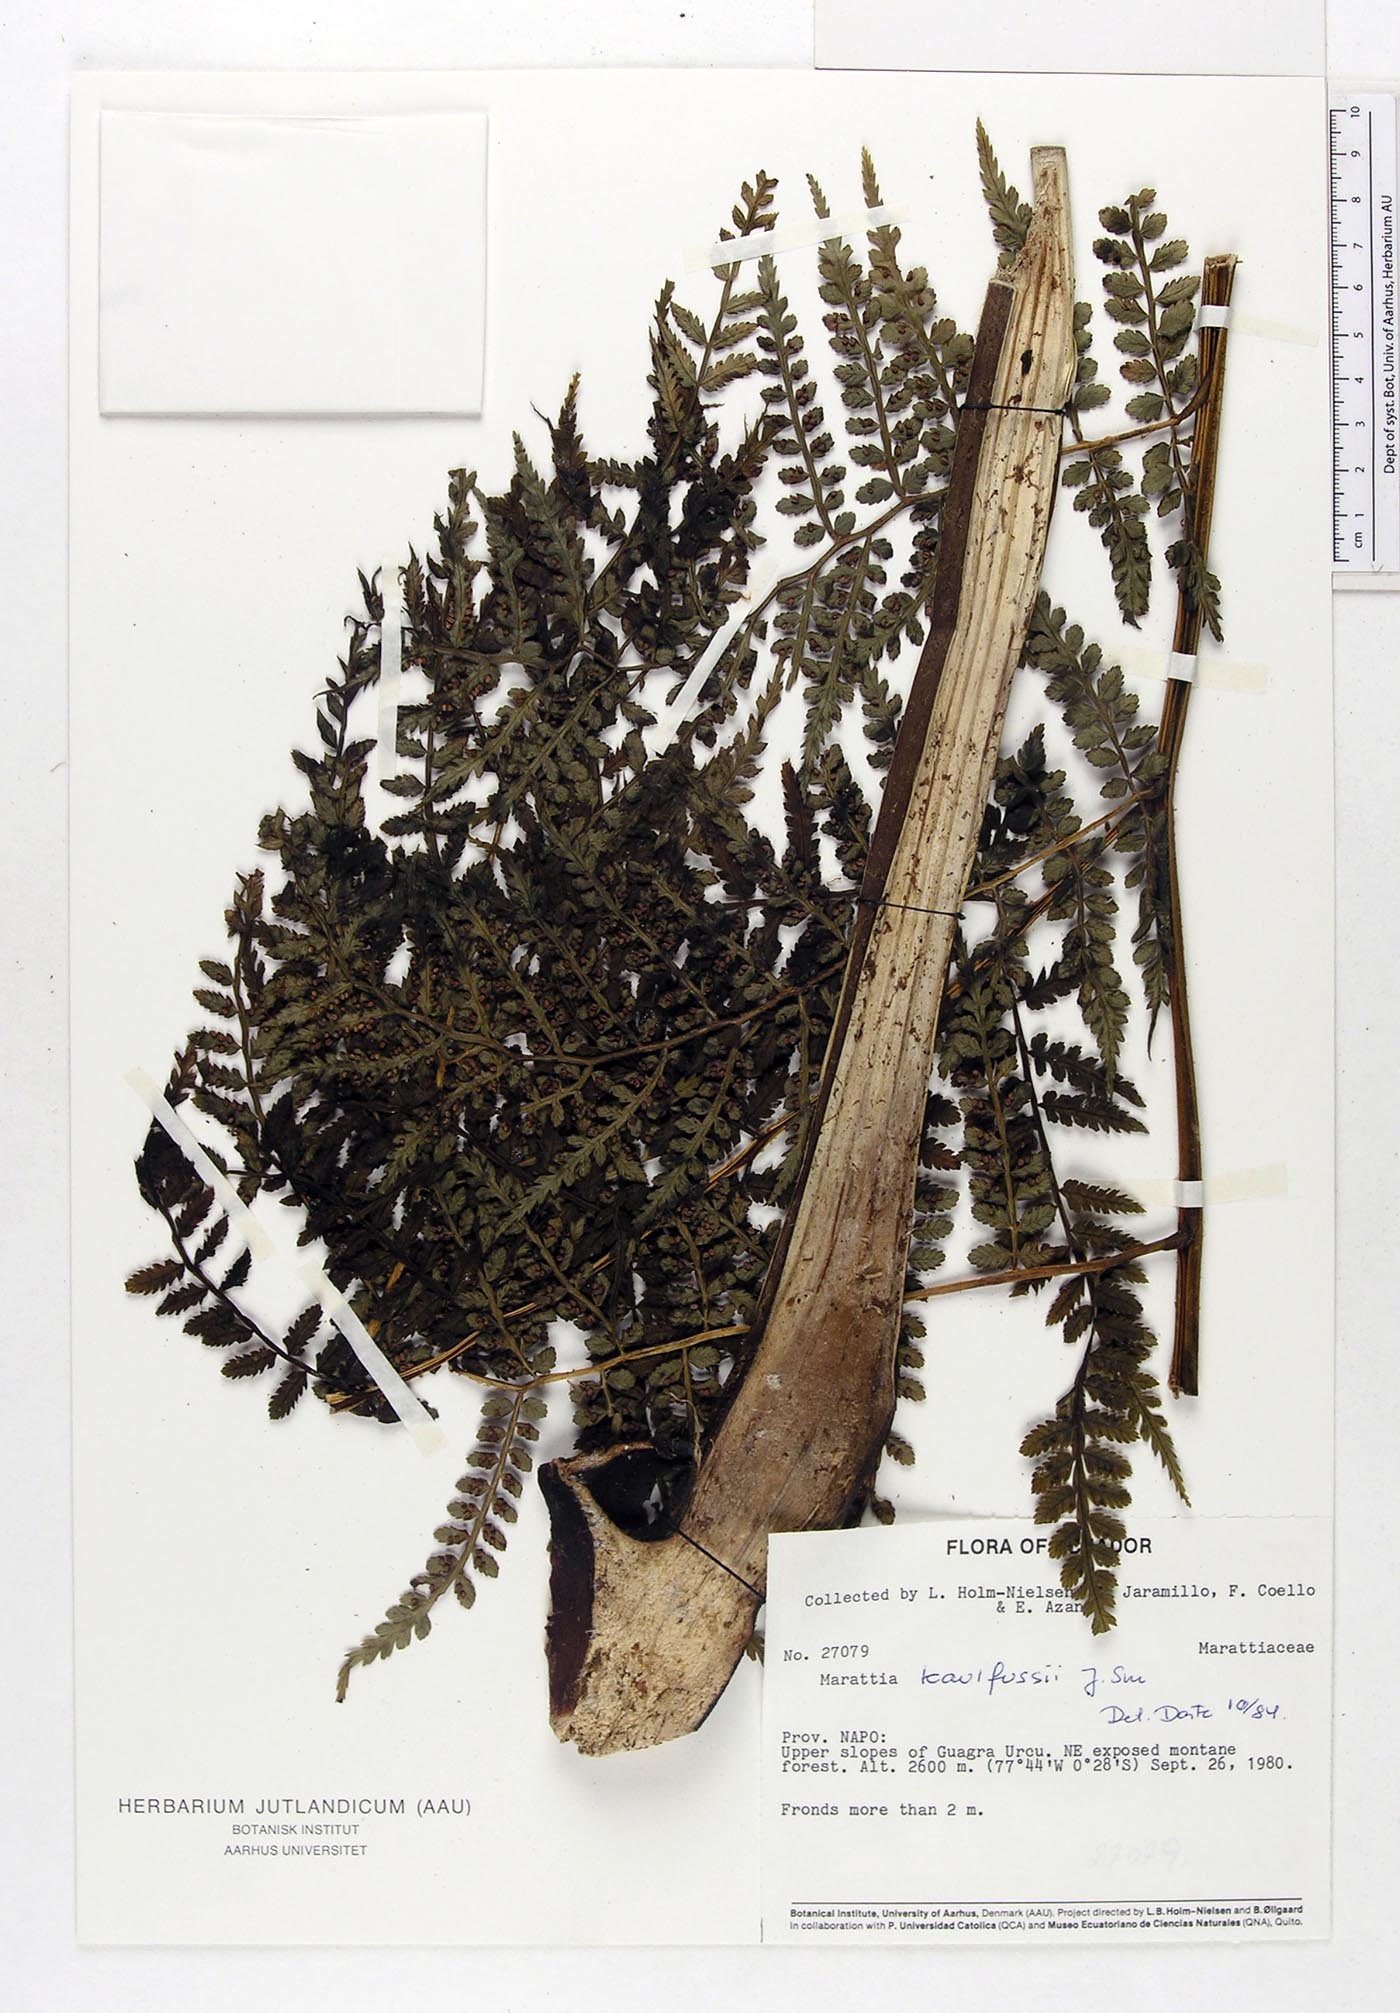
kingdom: Plantae
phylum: Tracheophyta
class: Polypodiopsida
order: Marattiales
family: Marattiaceae
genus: Eupodium
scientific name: Eupodium kaulfussii
